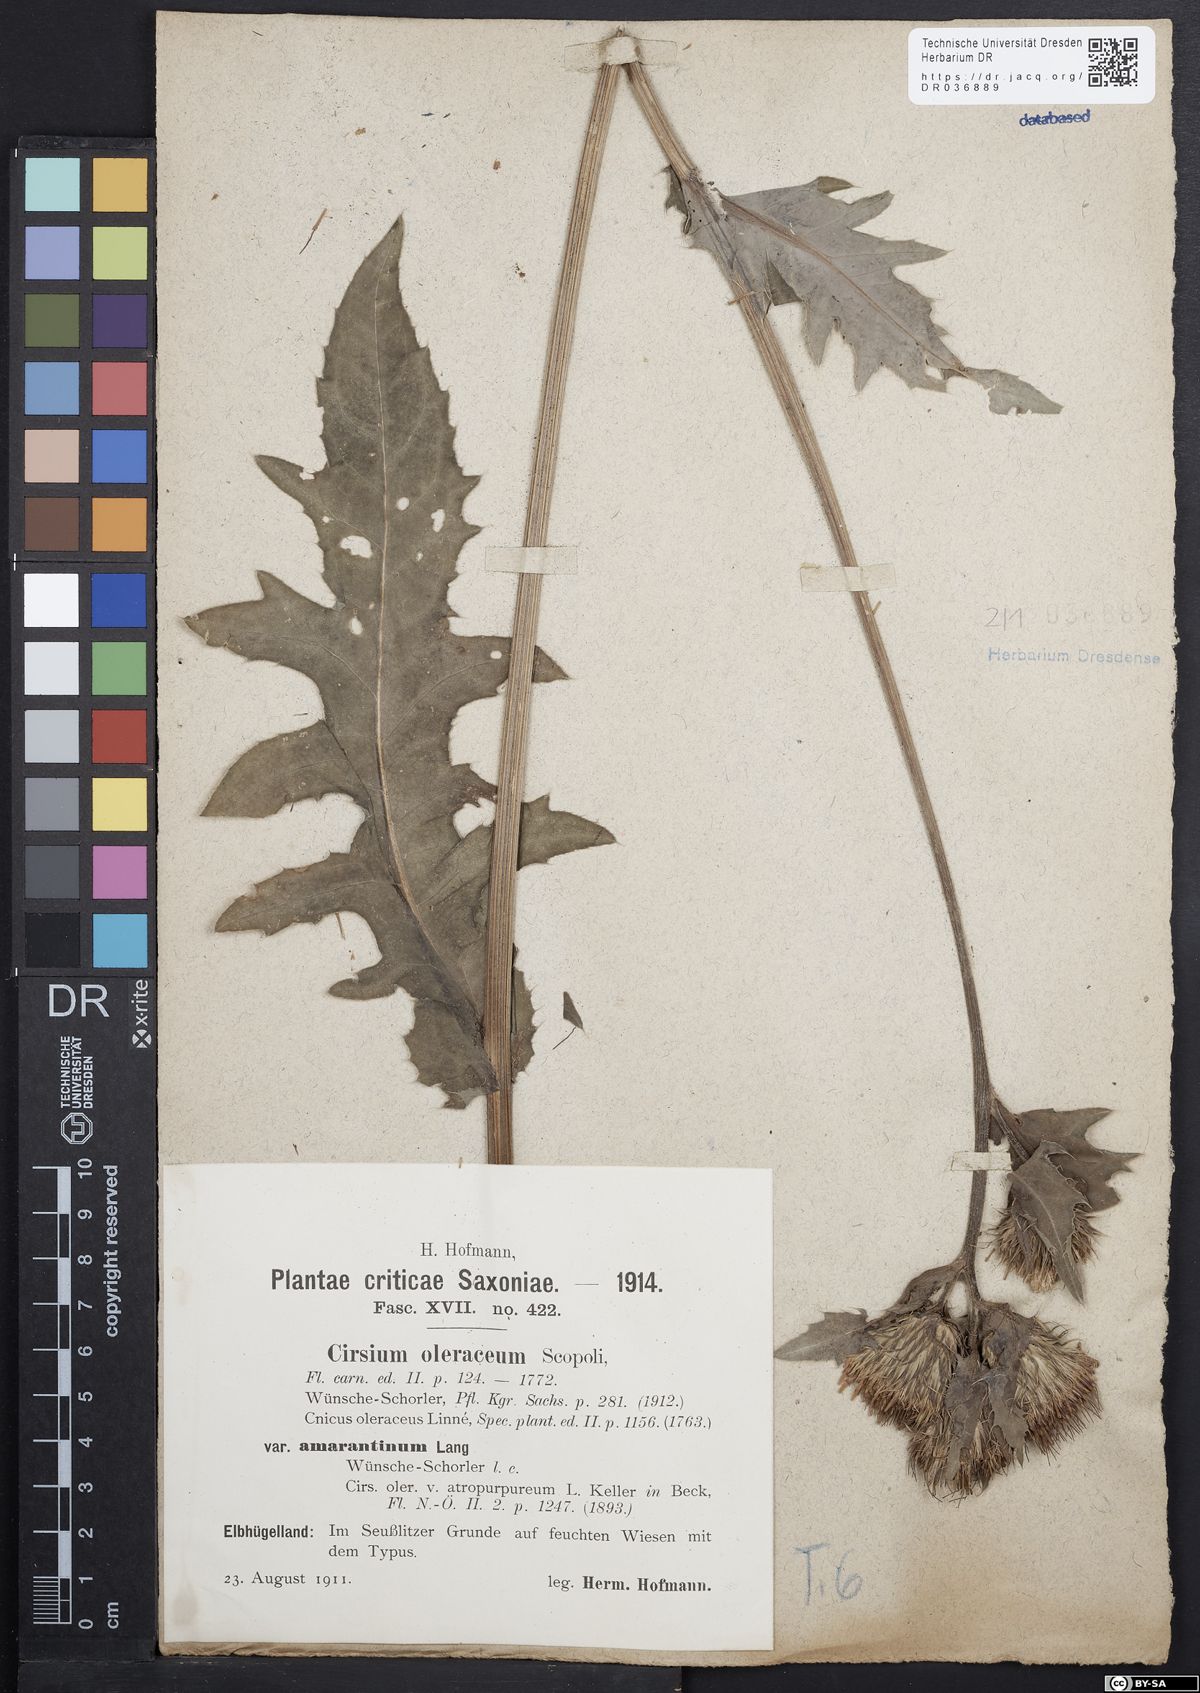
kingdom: Plantae
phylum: Tracheophyta
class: Magnoliopsida
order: Asterales
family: Asteraceae
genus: Cirsium
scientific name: Cirsium oleraceum
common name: Cabbage thistle
